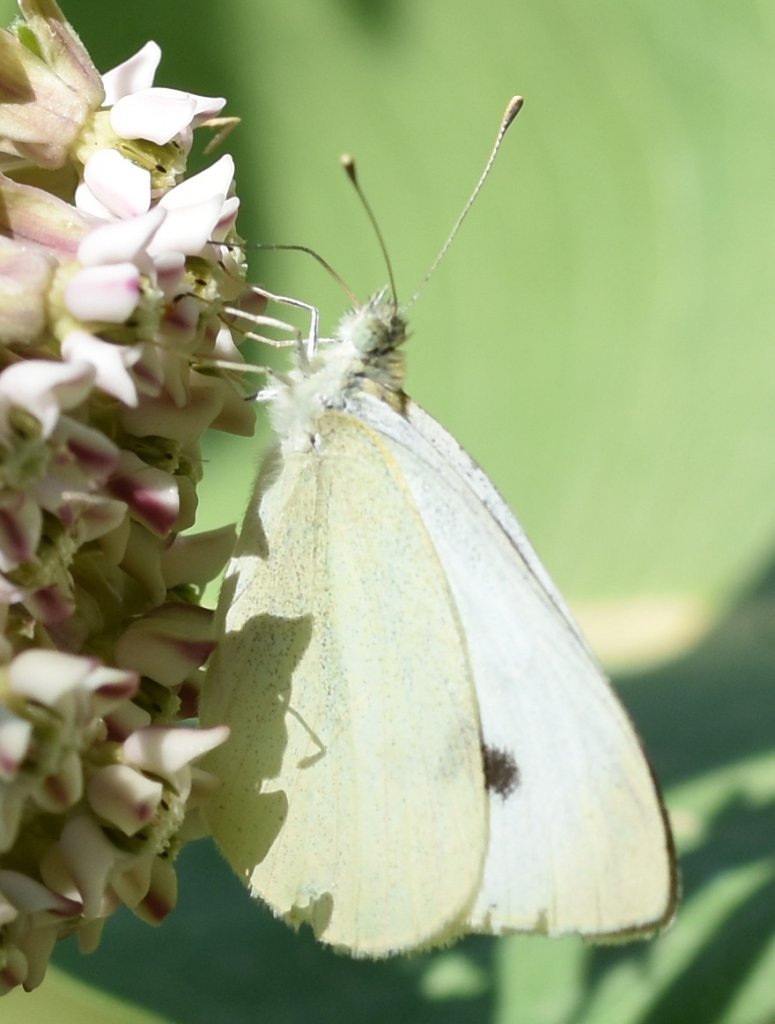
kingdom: Animalia
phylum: Arthropoda
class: Insecta
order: Lepidoptera
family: Pieridae
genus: Pieris
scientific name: Pieris rapae
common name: Cabbage White
